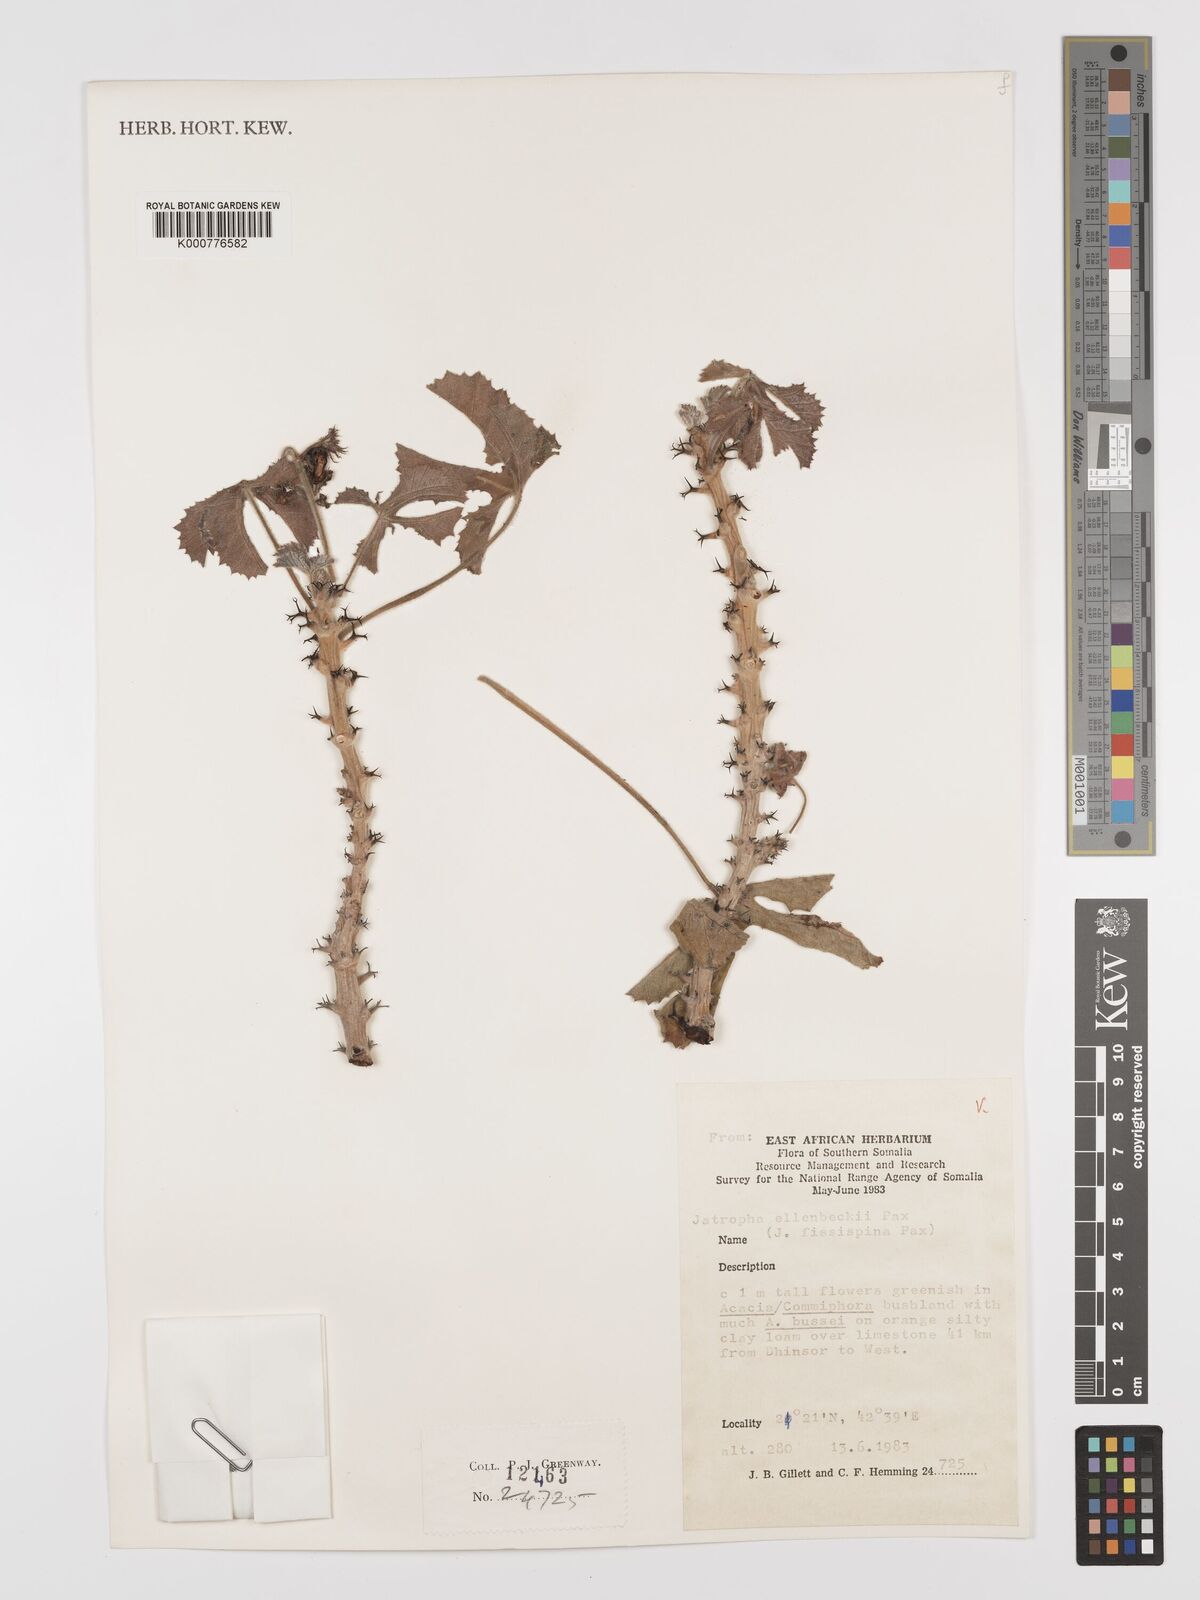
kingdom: Plantae
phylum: Tracheophyta
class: Magnoliopsida
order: Malpighiales
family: Euphorbiaceae
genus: Jatropha
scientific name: Jatropha ellenbeckii
